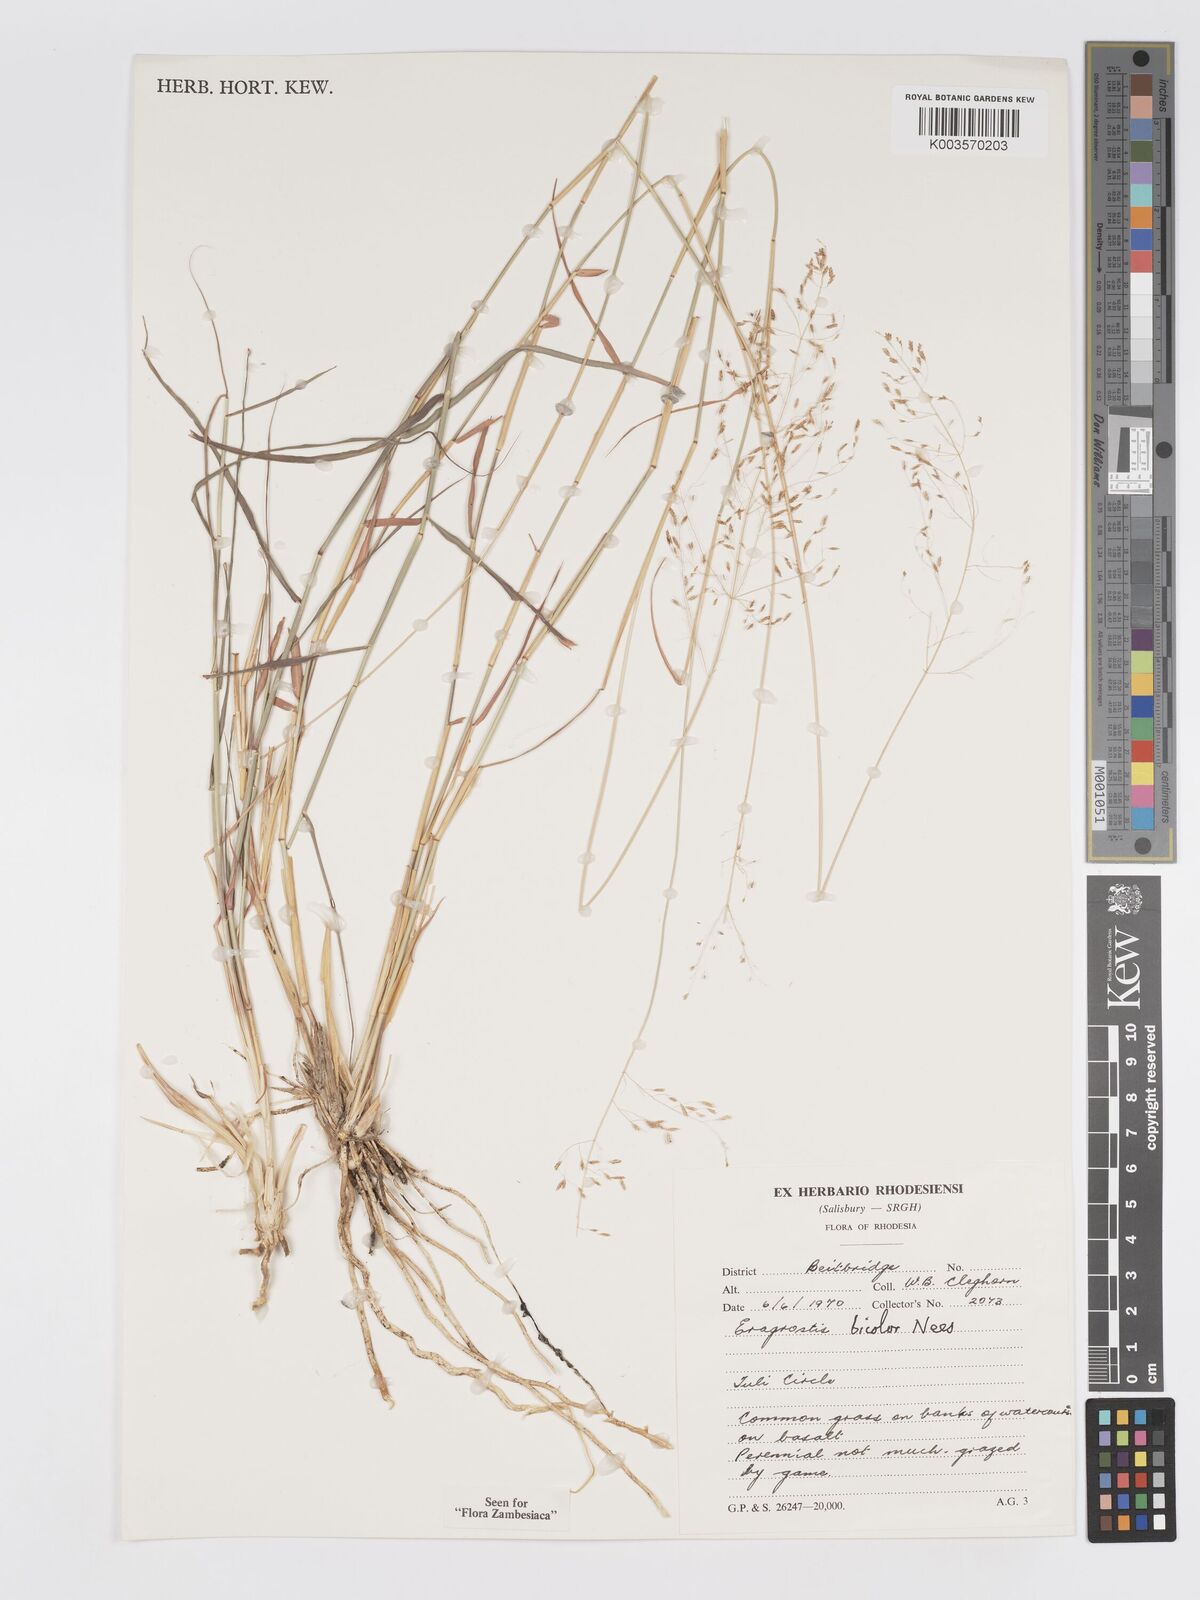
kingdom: Plantae
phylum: Tracheophyta
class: Liliopsida
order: Poales
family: Poaceae
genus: Eragrostis
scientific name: Eragrostis bicolor
